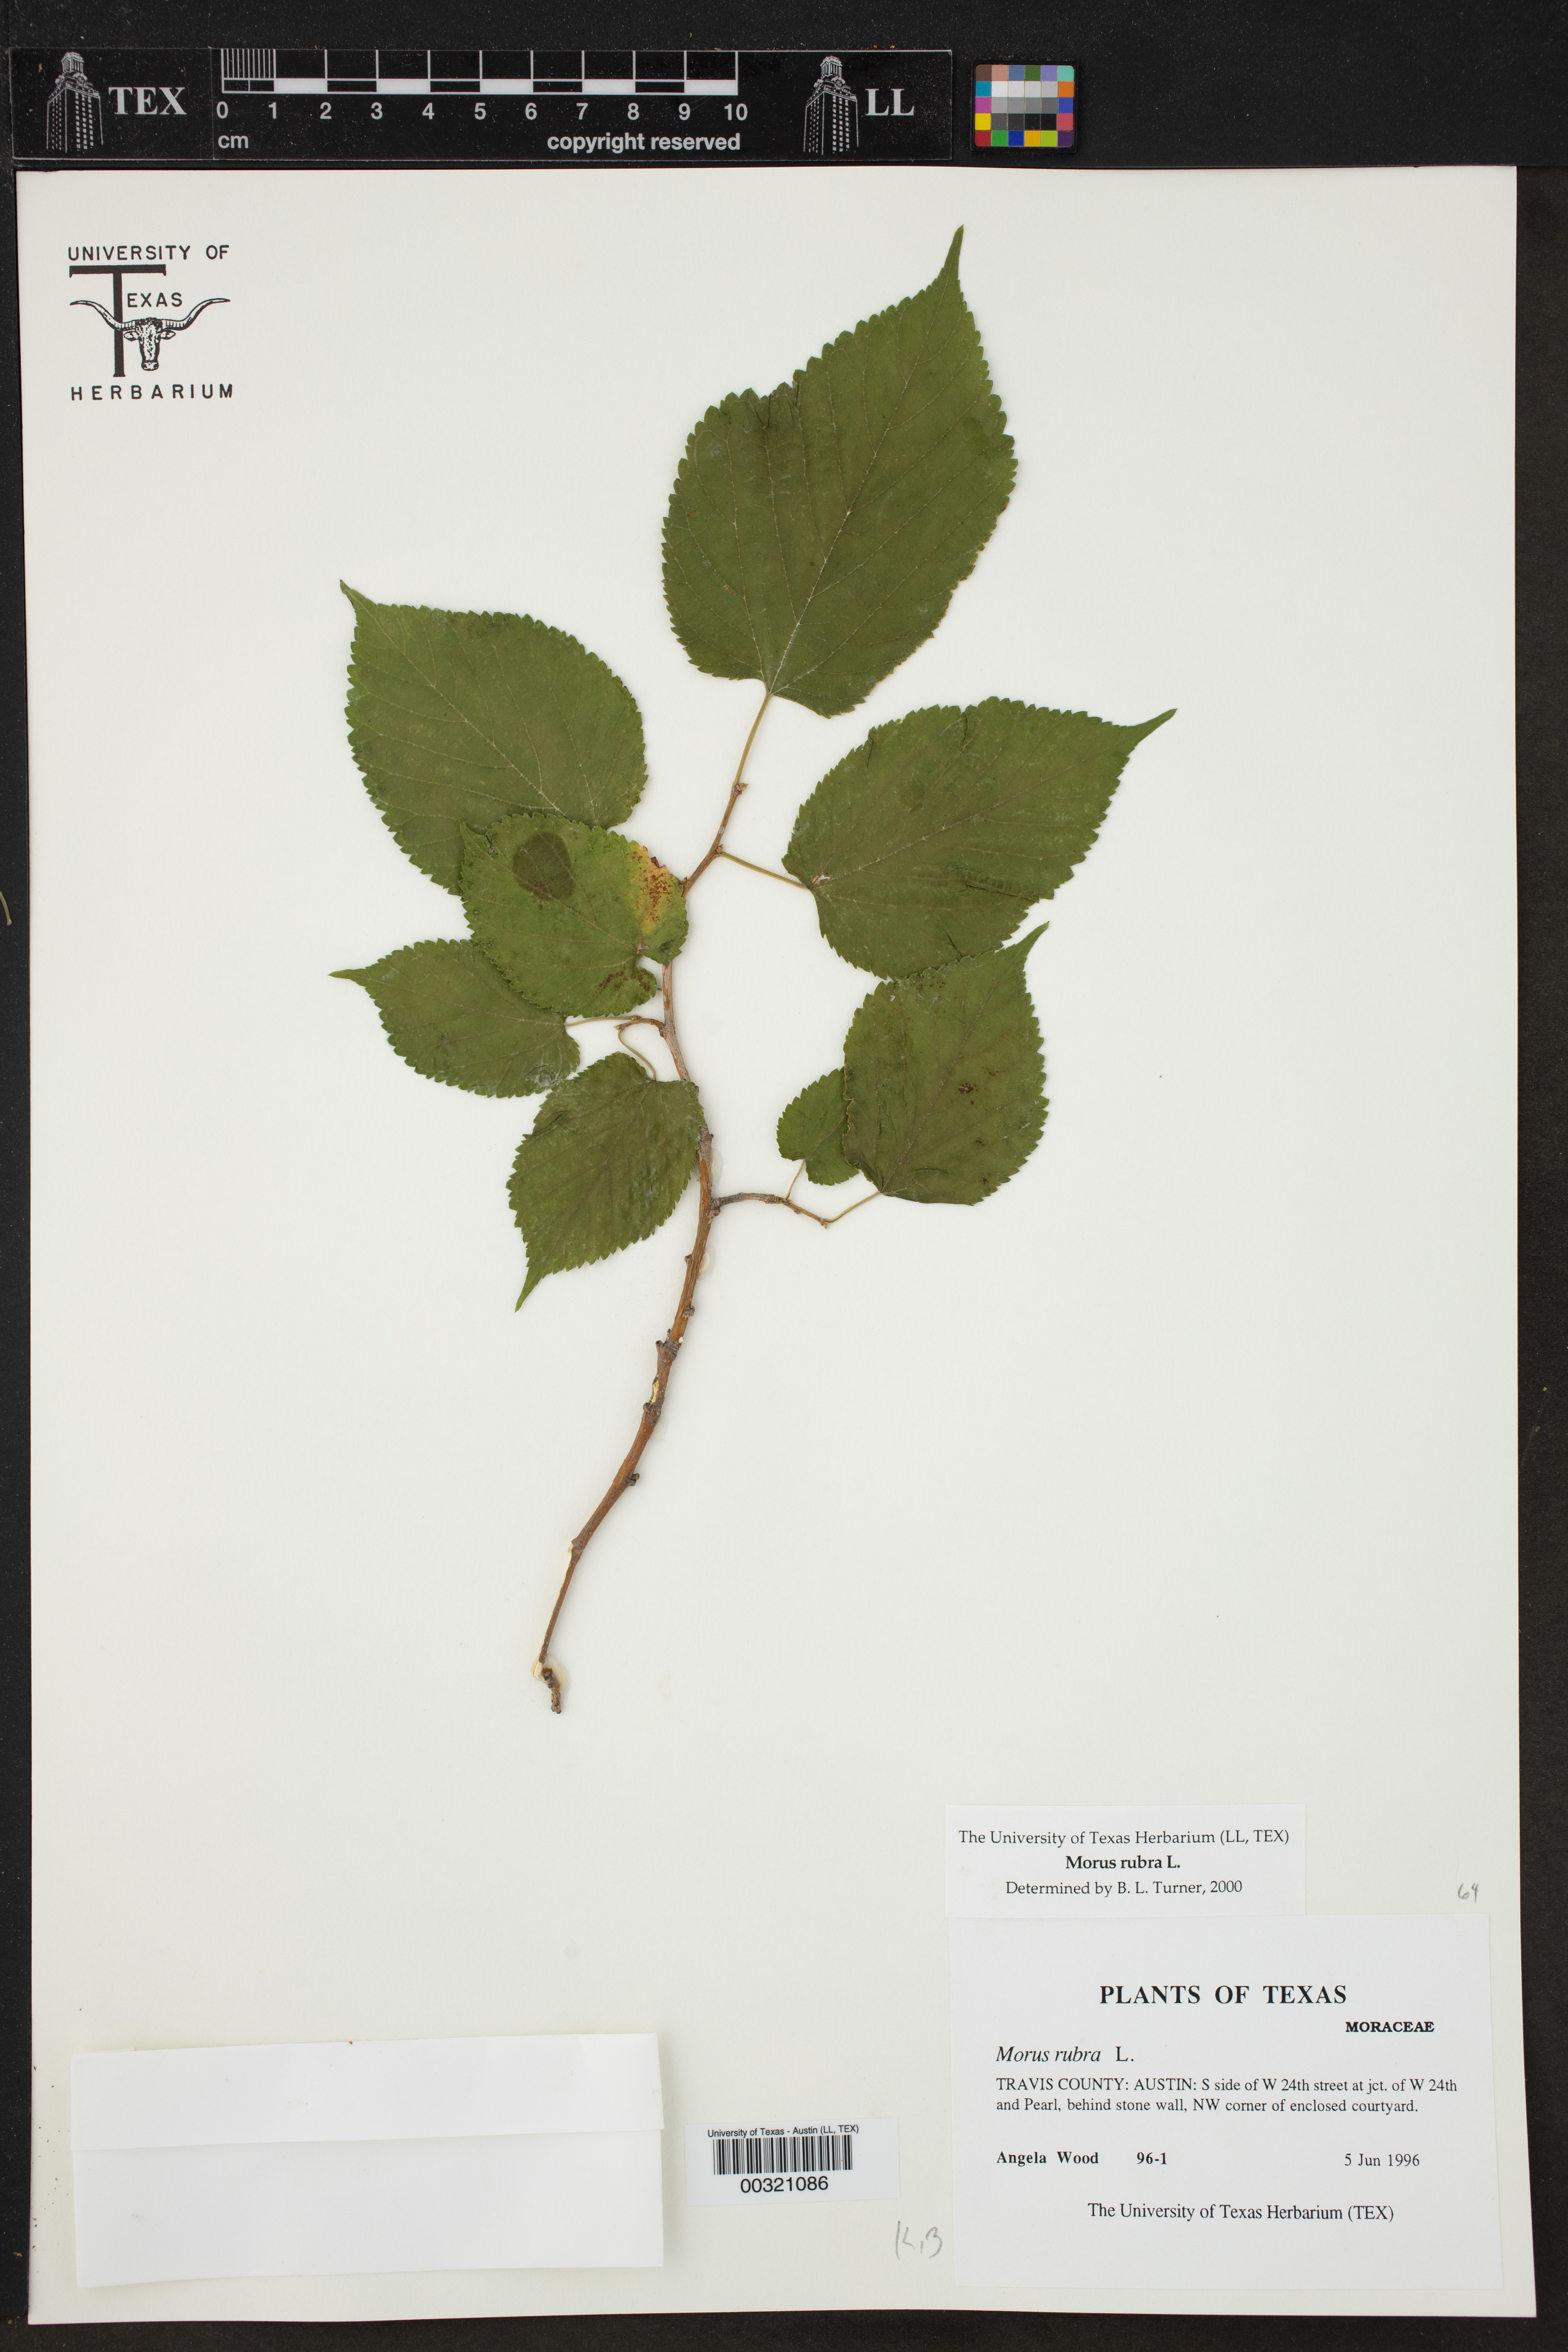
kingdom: Plantae
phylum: Tracheophyta
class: Magnoliopsida
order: Rosales
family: Moraceae
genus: Morus
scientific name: Morus rubra
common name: Red mulberry
